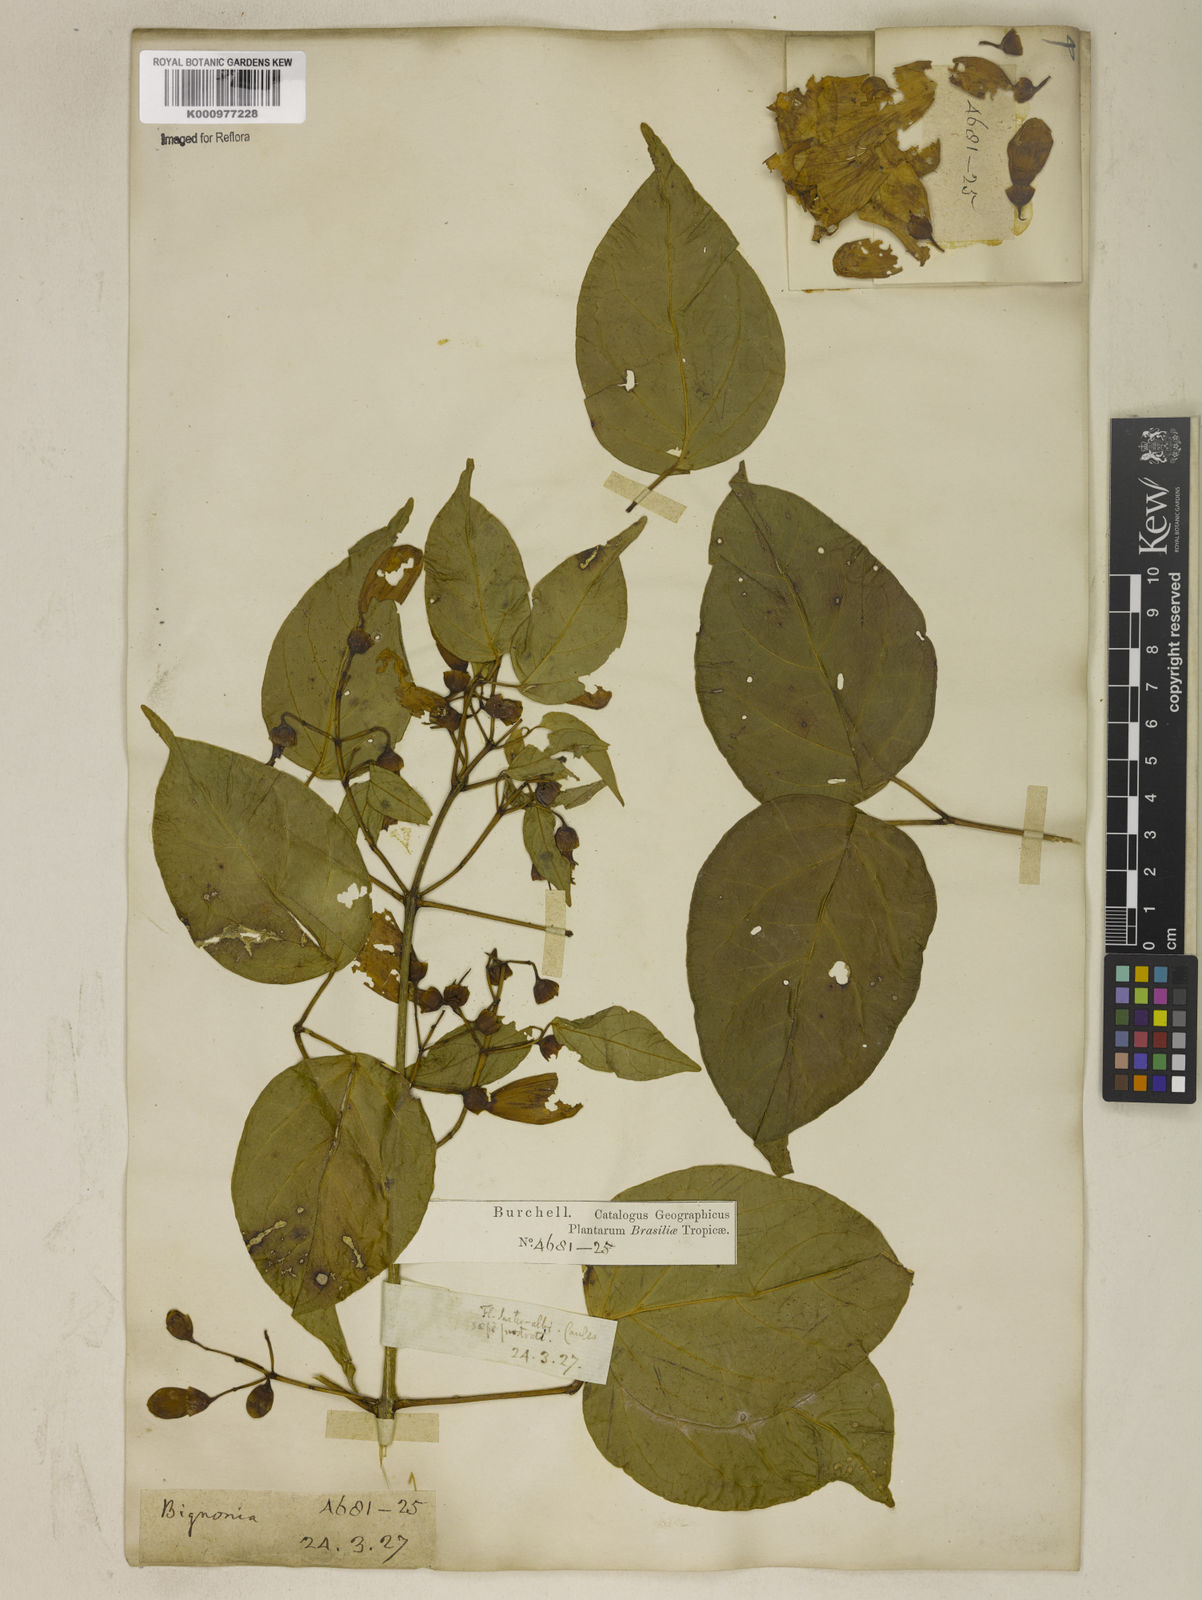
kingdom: Plantae
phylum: Tracheophyta
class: Magnoliopsida
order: Lamiales
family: Bignoniaceae
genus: Anemopaegma
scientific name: Anemopaegma
